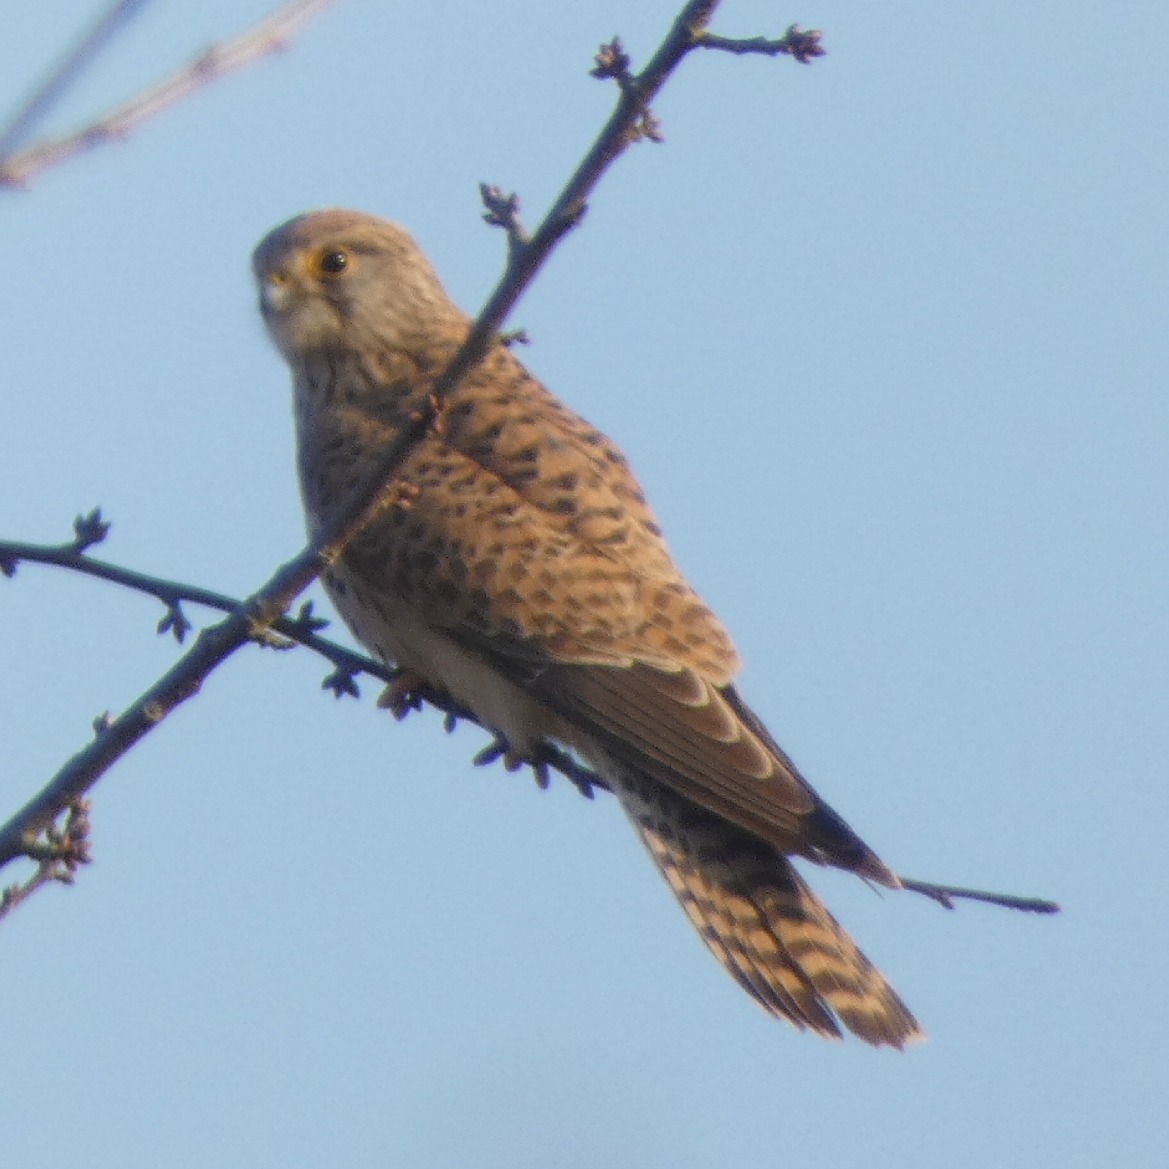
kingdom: Animalia
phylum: Chordata
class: Aves
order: Falconiformes
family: Falconidae
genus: Falco
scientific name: Falco tinnunculus
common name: Tårnfalk
